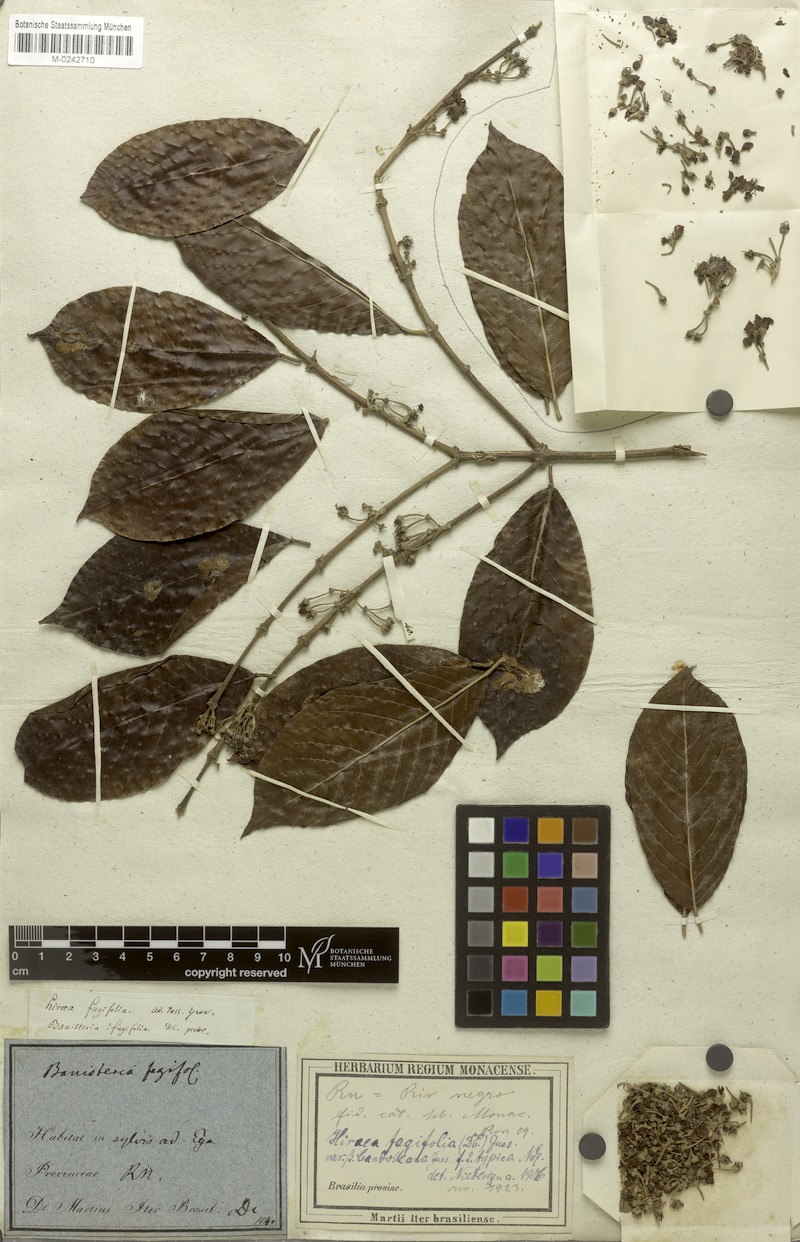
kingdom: Plantae
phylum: Tracheophyta
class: Magnoliopsida
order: Malpighiales
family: Malpighiaceae
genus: Hiraea
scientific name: Hiraea fagifolia
